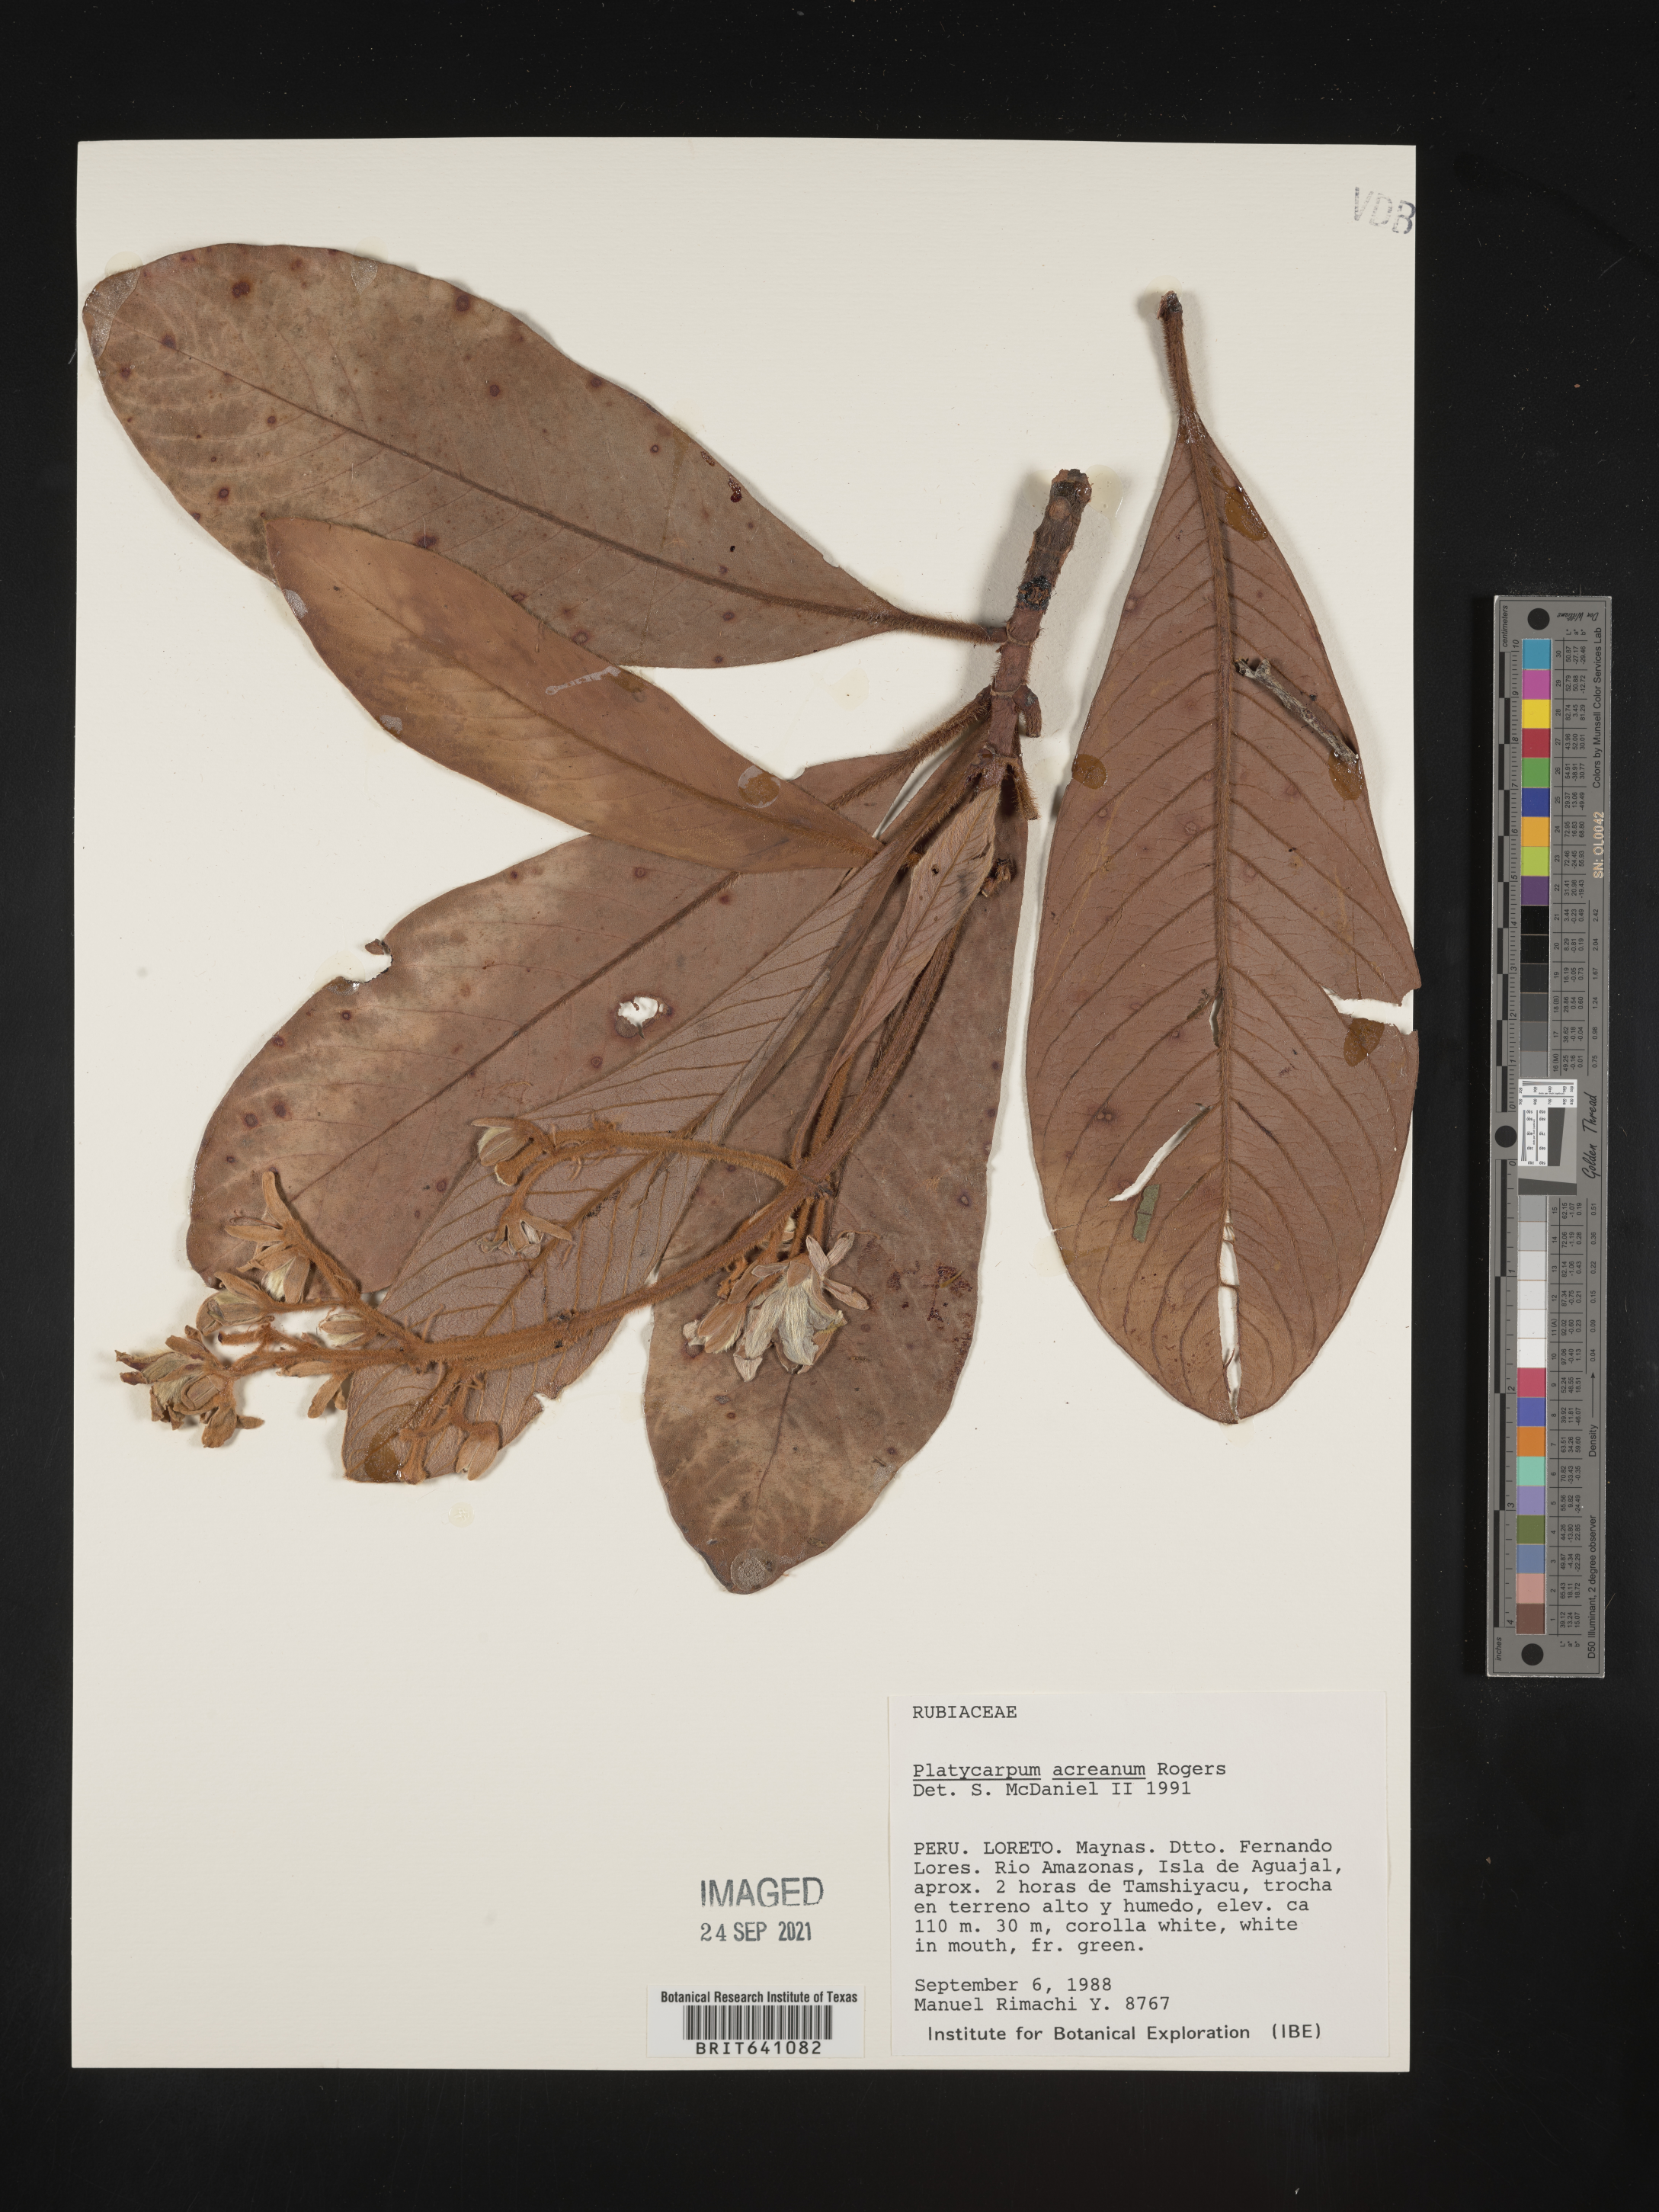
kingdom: Plantae
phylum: Tracheophyta
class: Magnoliopsida
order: Gentianales
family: Rubiaceae
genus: Platycarpum
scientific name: Platycarpum
